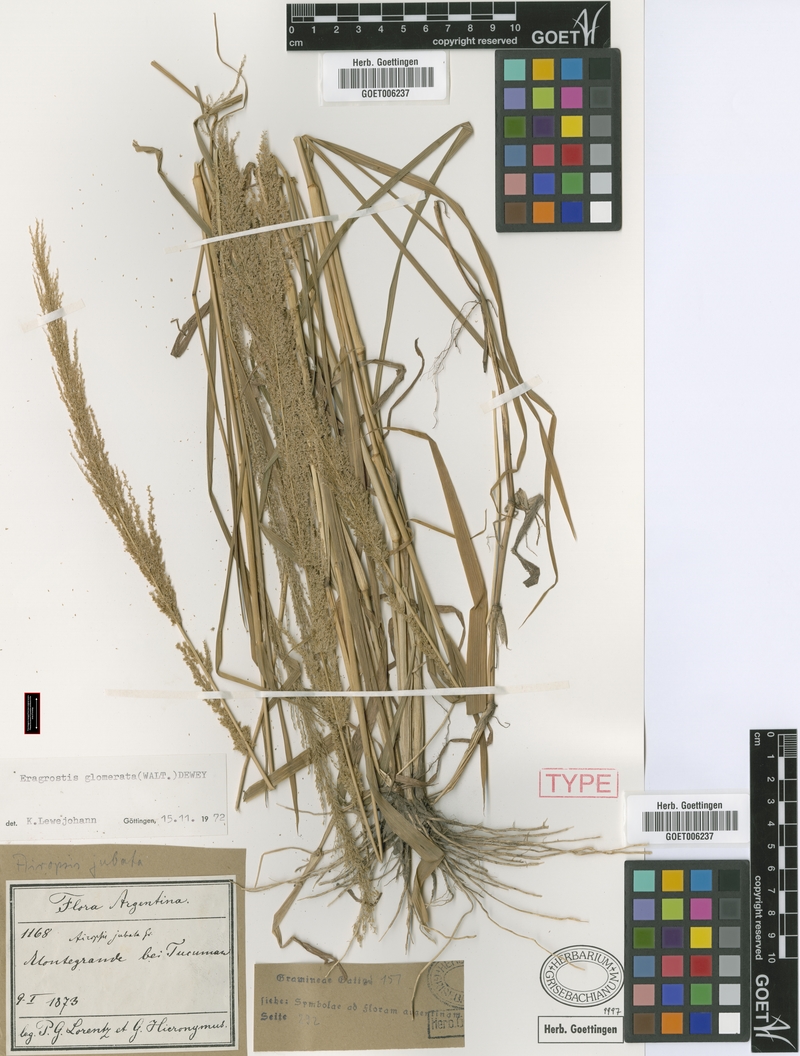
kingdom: Plantae
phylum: Tracheophyta
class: Liliopsida
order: Poales
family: Poaceae
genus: Eragrostis
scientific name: Eragrostis japonica
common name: Pond lovegrass
